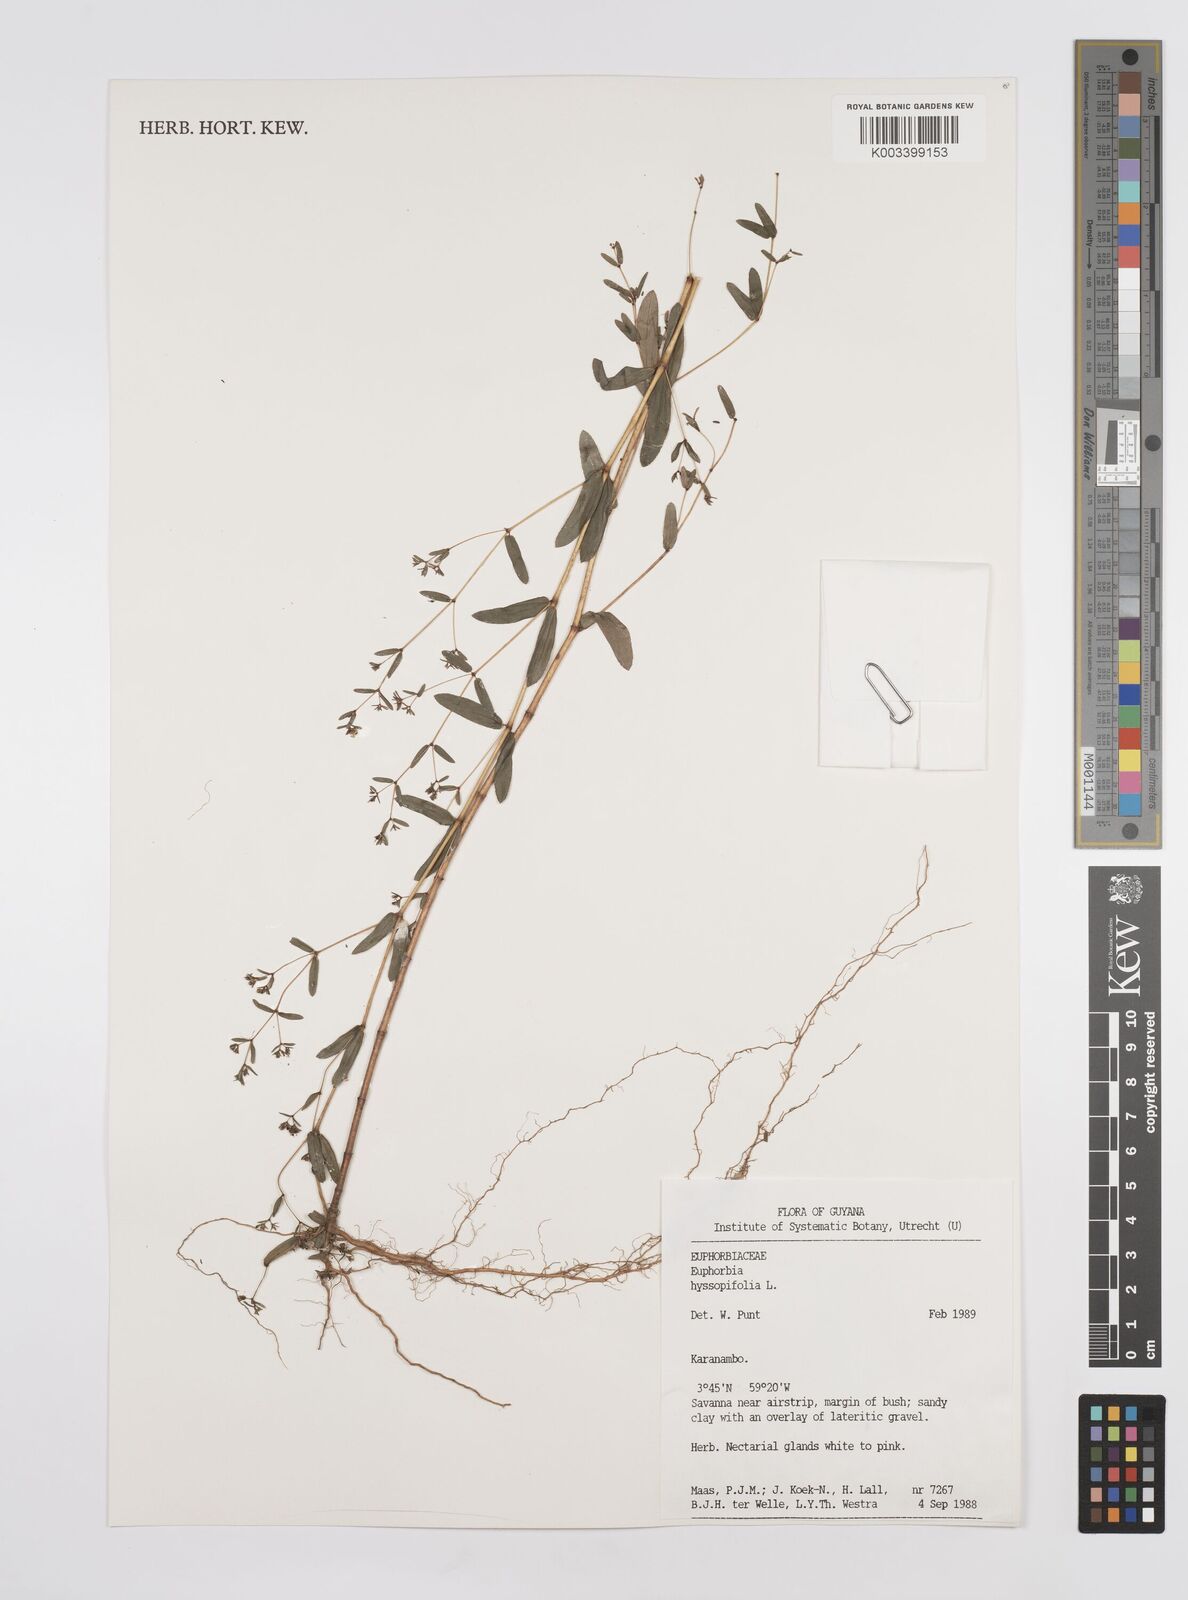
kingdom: Plantae
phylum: Tracheophyta
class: Magnoliopsida
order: Malpighiales
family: Euphorbiaceae
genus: Euphorbia
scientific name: Euphorbia hyssopifolia
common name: Hyssopleaf sandmat
